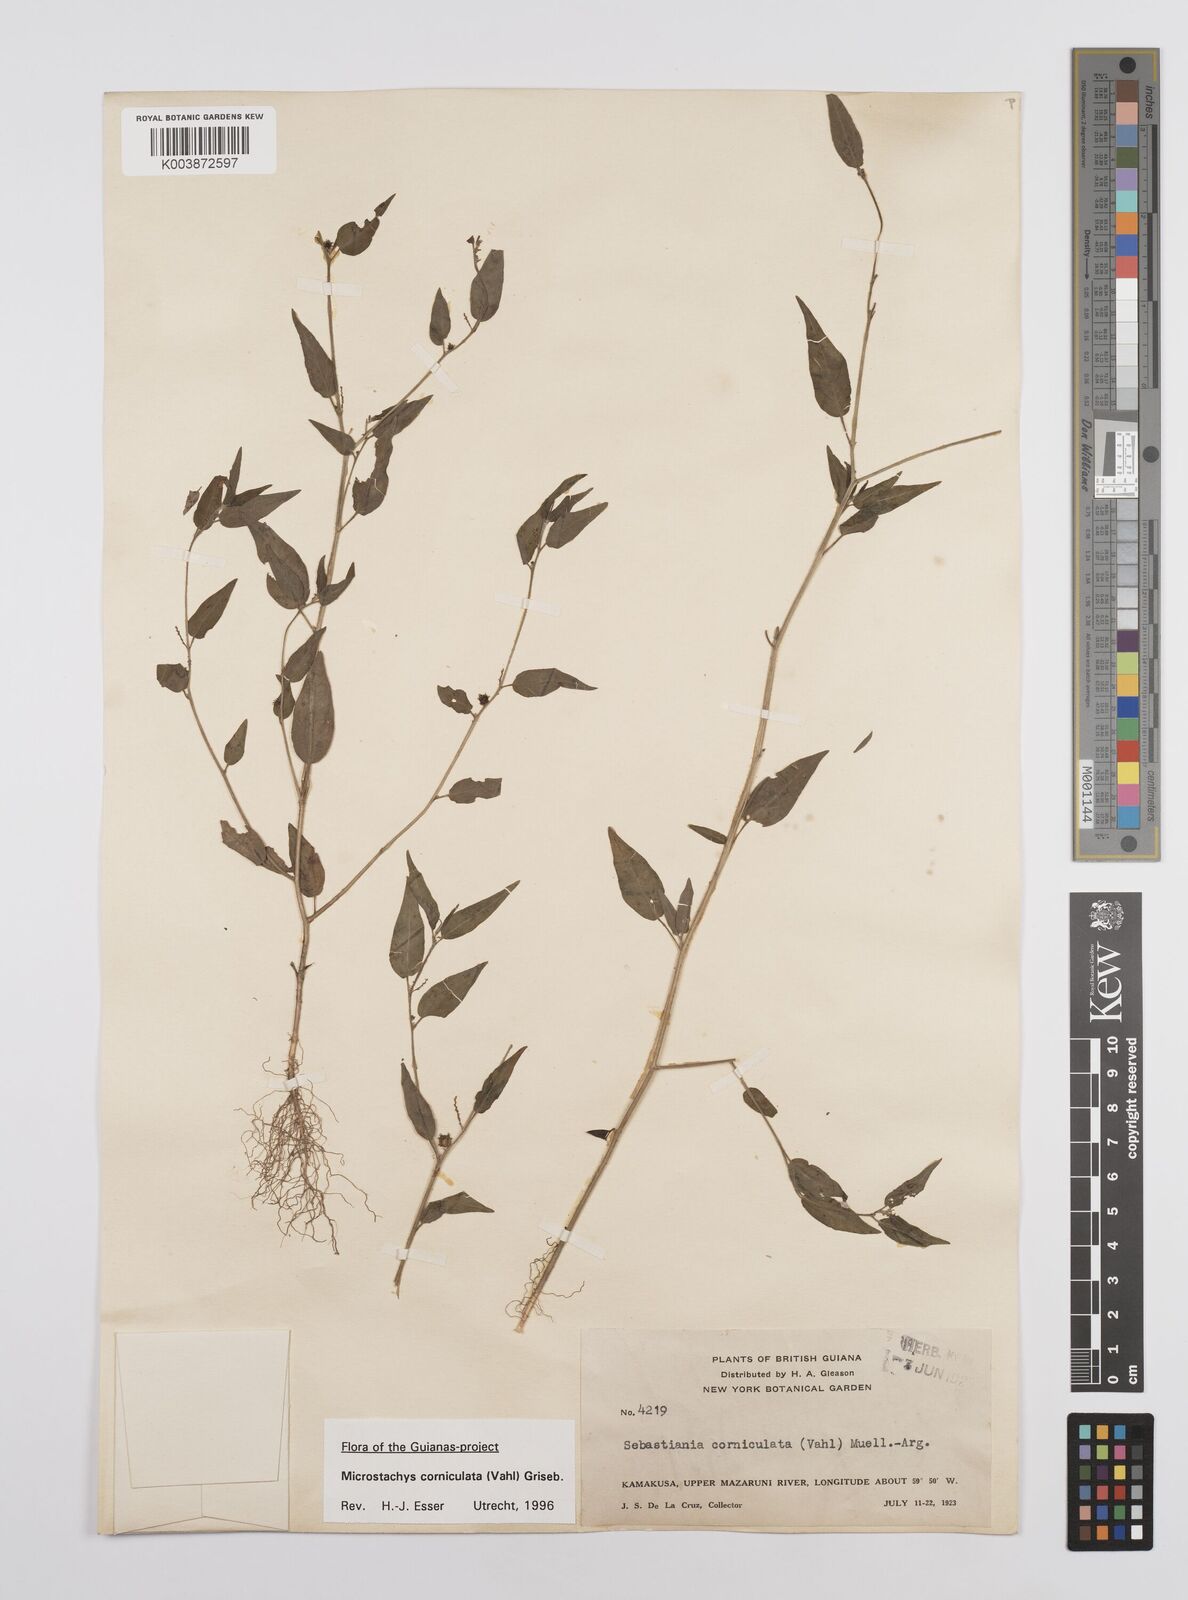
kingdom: Plantae
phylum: Tracheophyta
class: Magnoliopsida
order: Malpighiales
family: Euphorbiaceae
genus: Microstachys
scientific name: Microstachys corniculata
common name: Hato tejas
